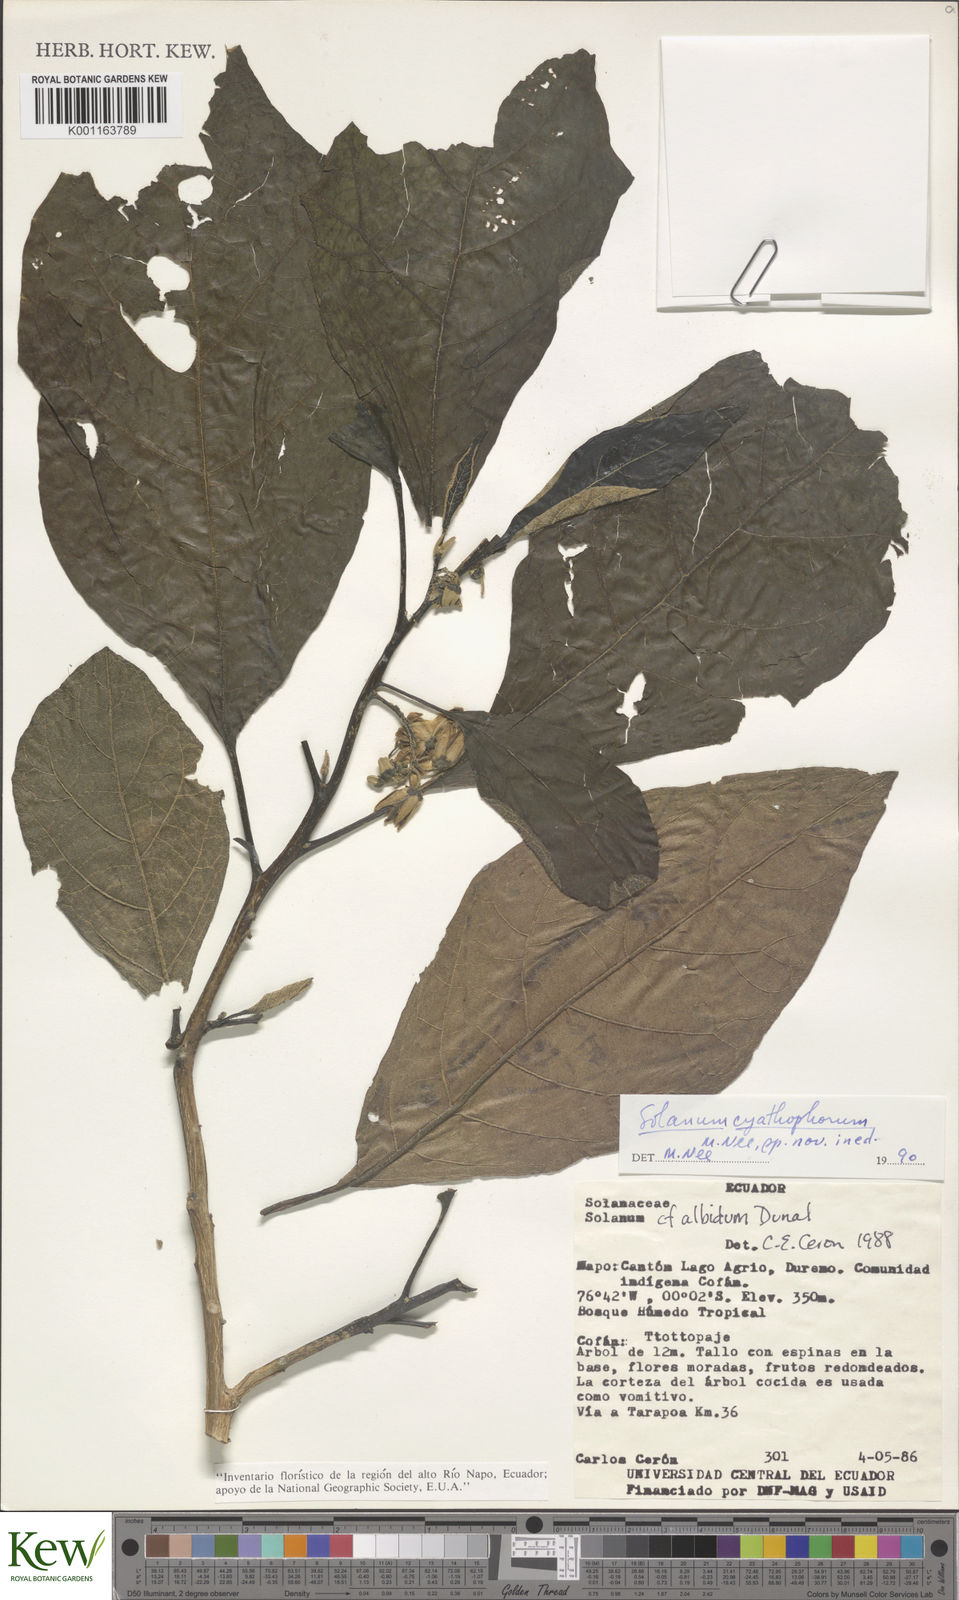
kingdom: Plantae
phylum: Tracheophyta
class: Magnoliopsida
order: Solanales
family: Solanaceae
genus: Solanum
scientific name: Solanum cyathophorum
